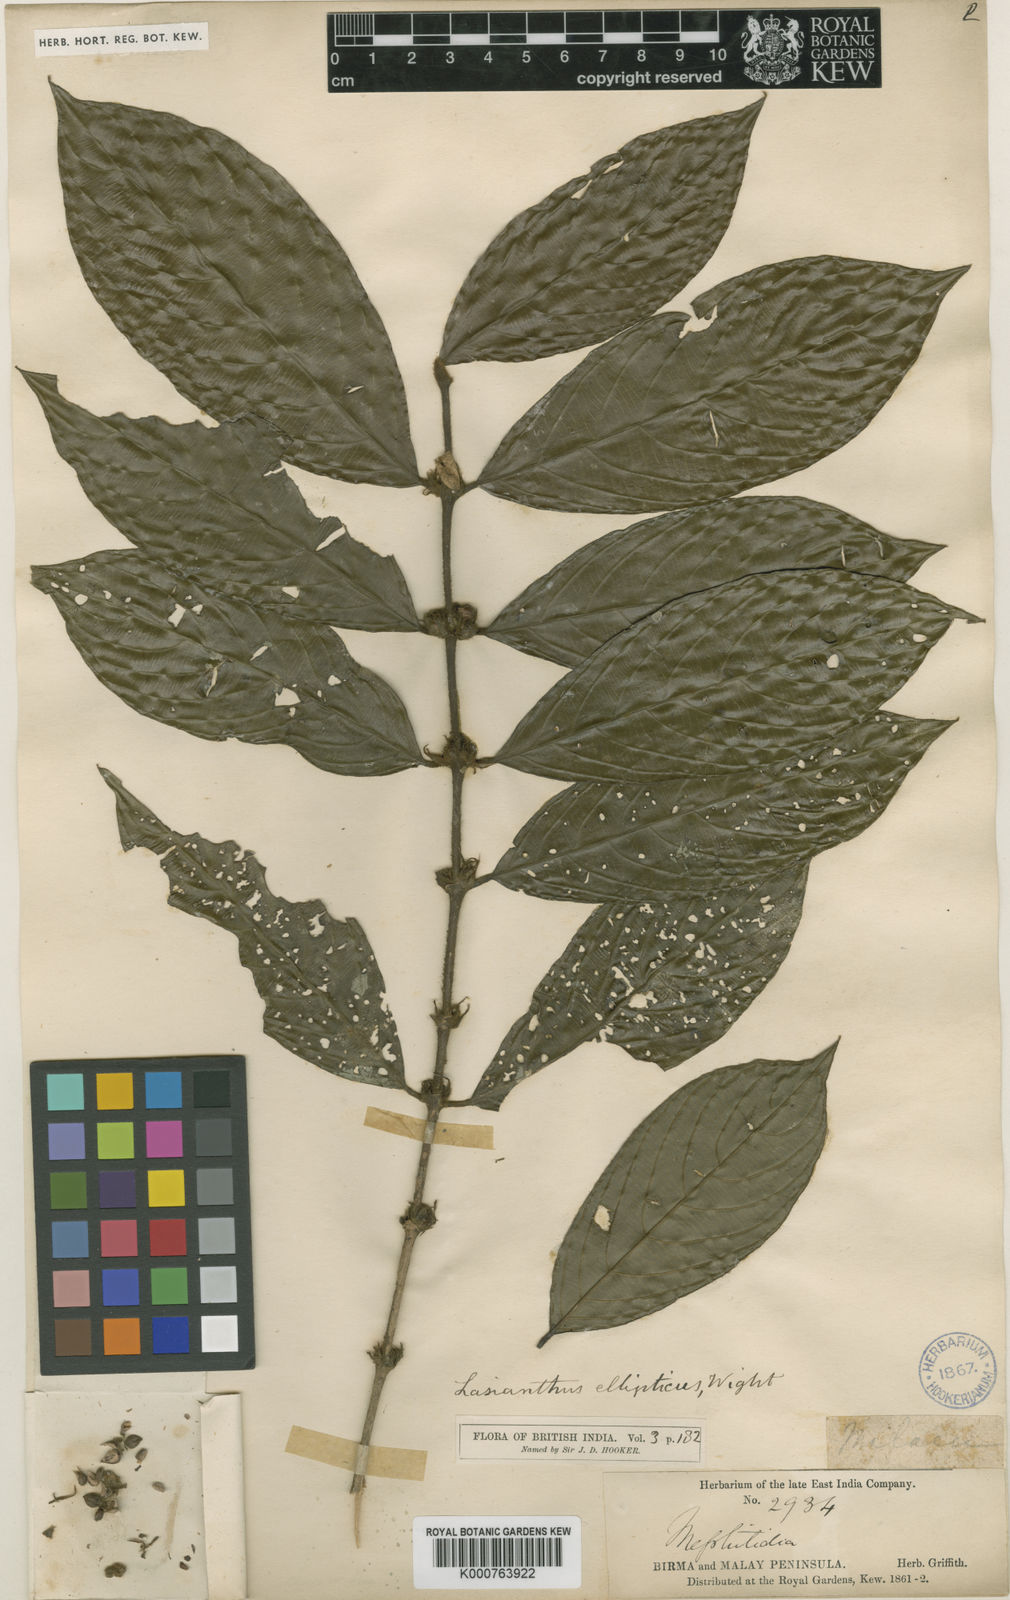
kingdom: Plantae
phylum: Tracheophyta
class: Magnoliopsida
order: Gentianales
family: Rubiaceae
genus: Lasianthus
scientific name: Lasianthus ellipticus
